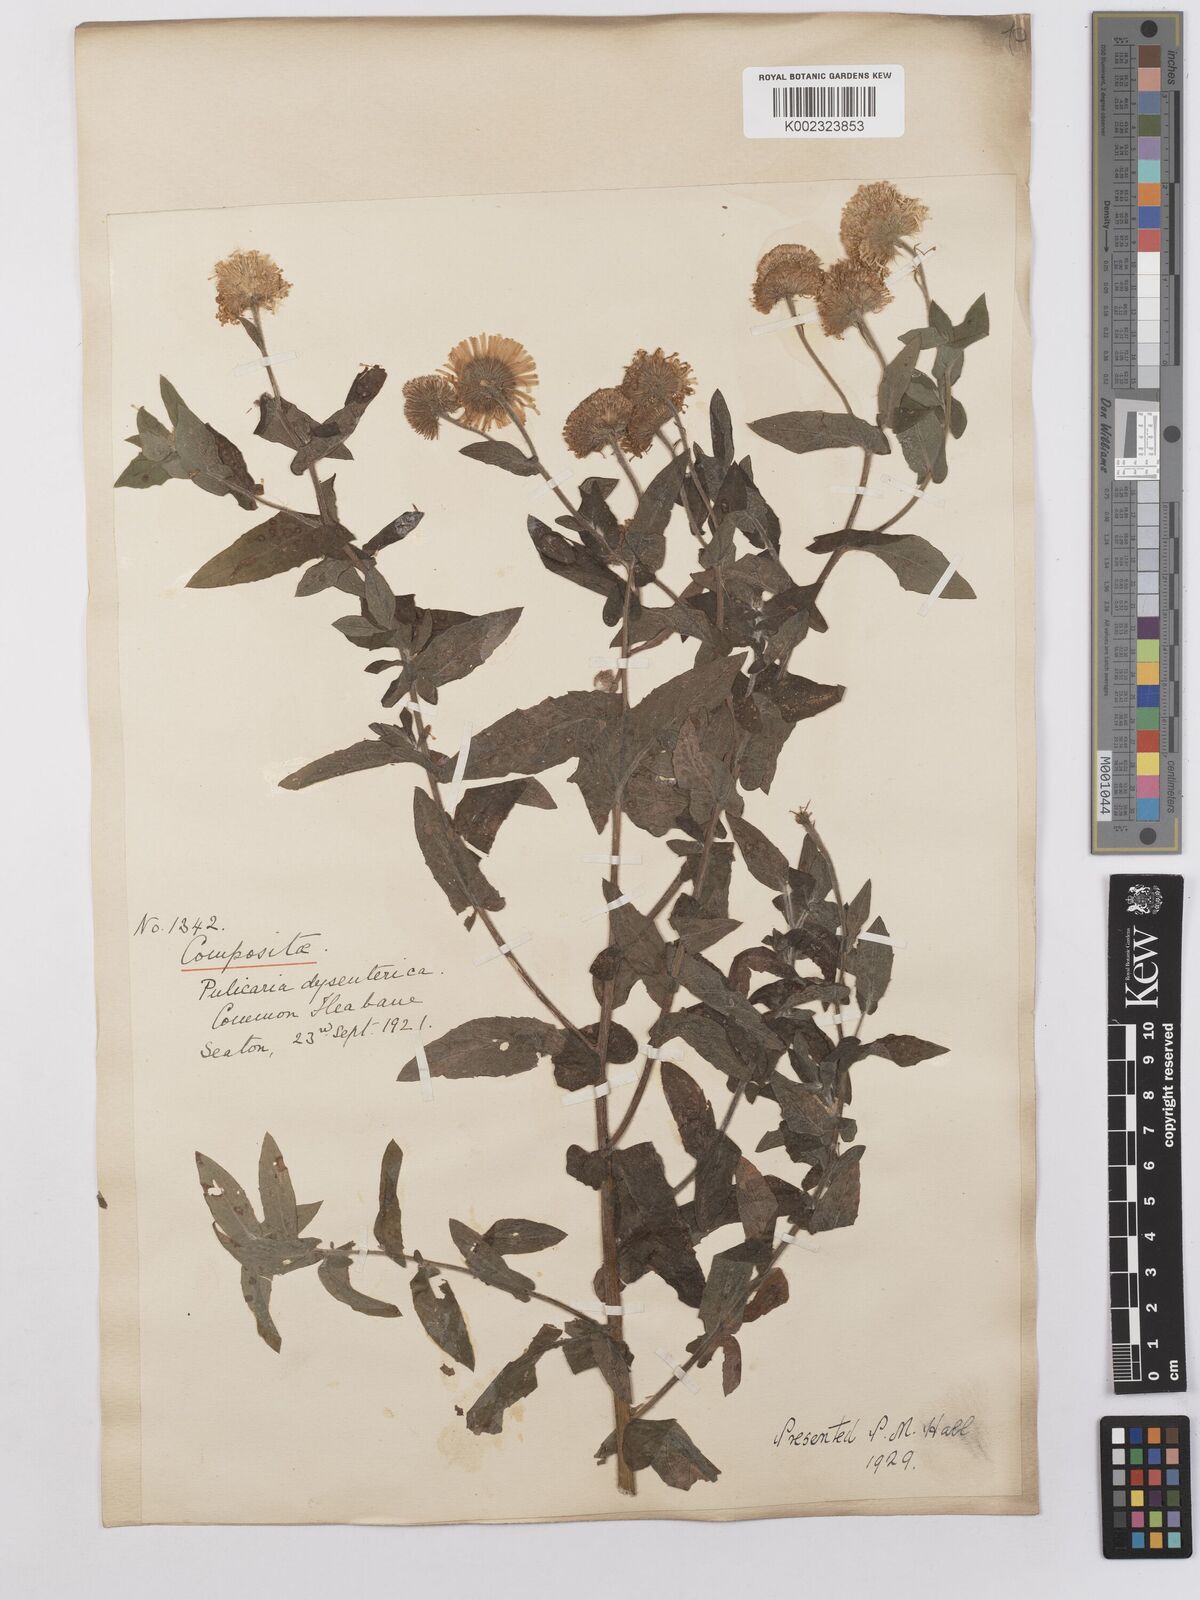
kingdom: Plantae
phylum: Tracheophyta
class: Magnoliopsida
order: Asterales
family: Asteraceae
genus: Pulicaria
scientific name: Pulicaria dysenterica
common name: Common fleabane
